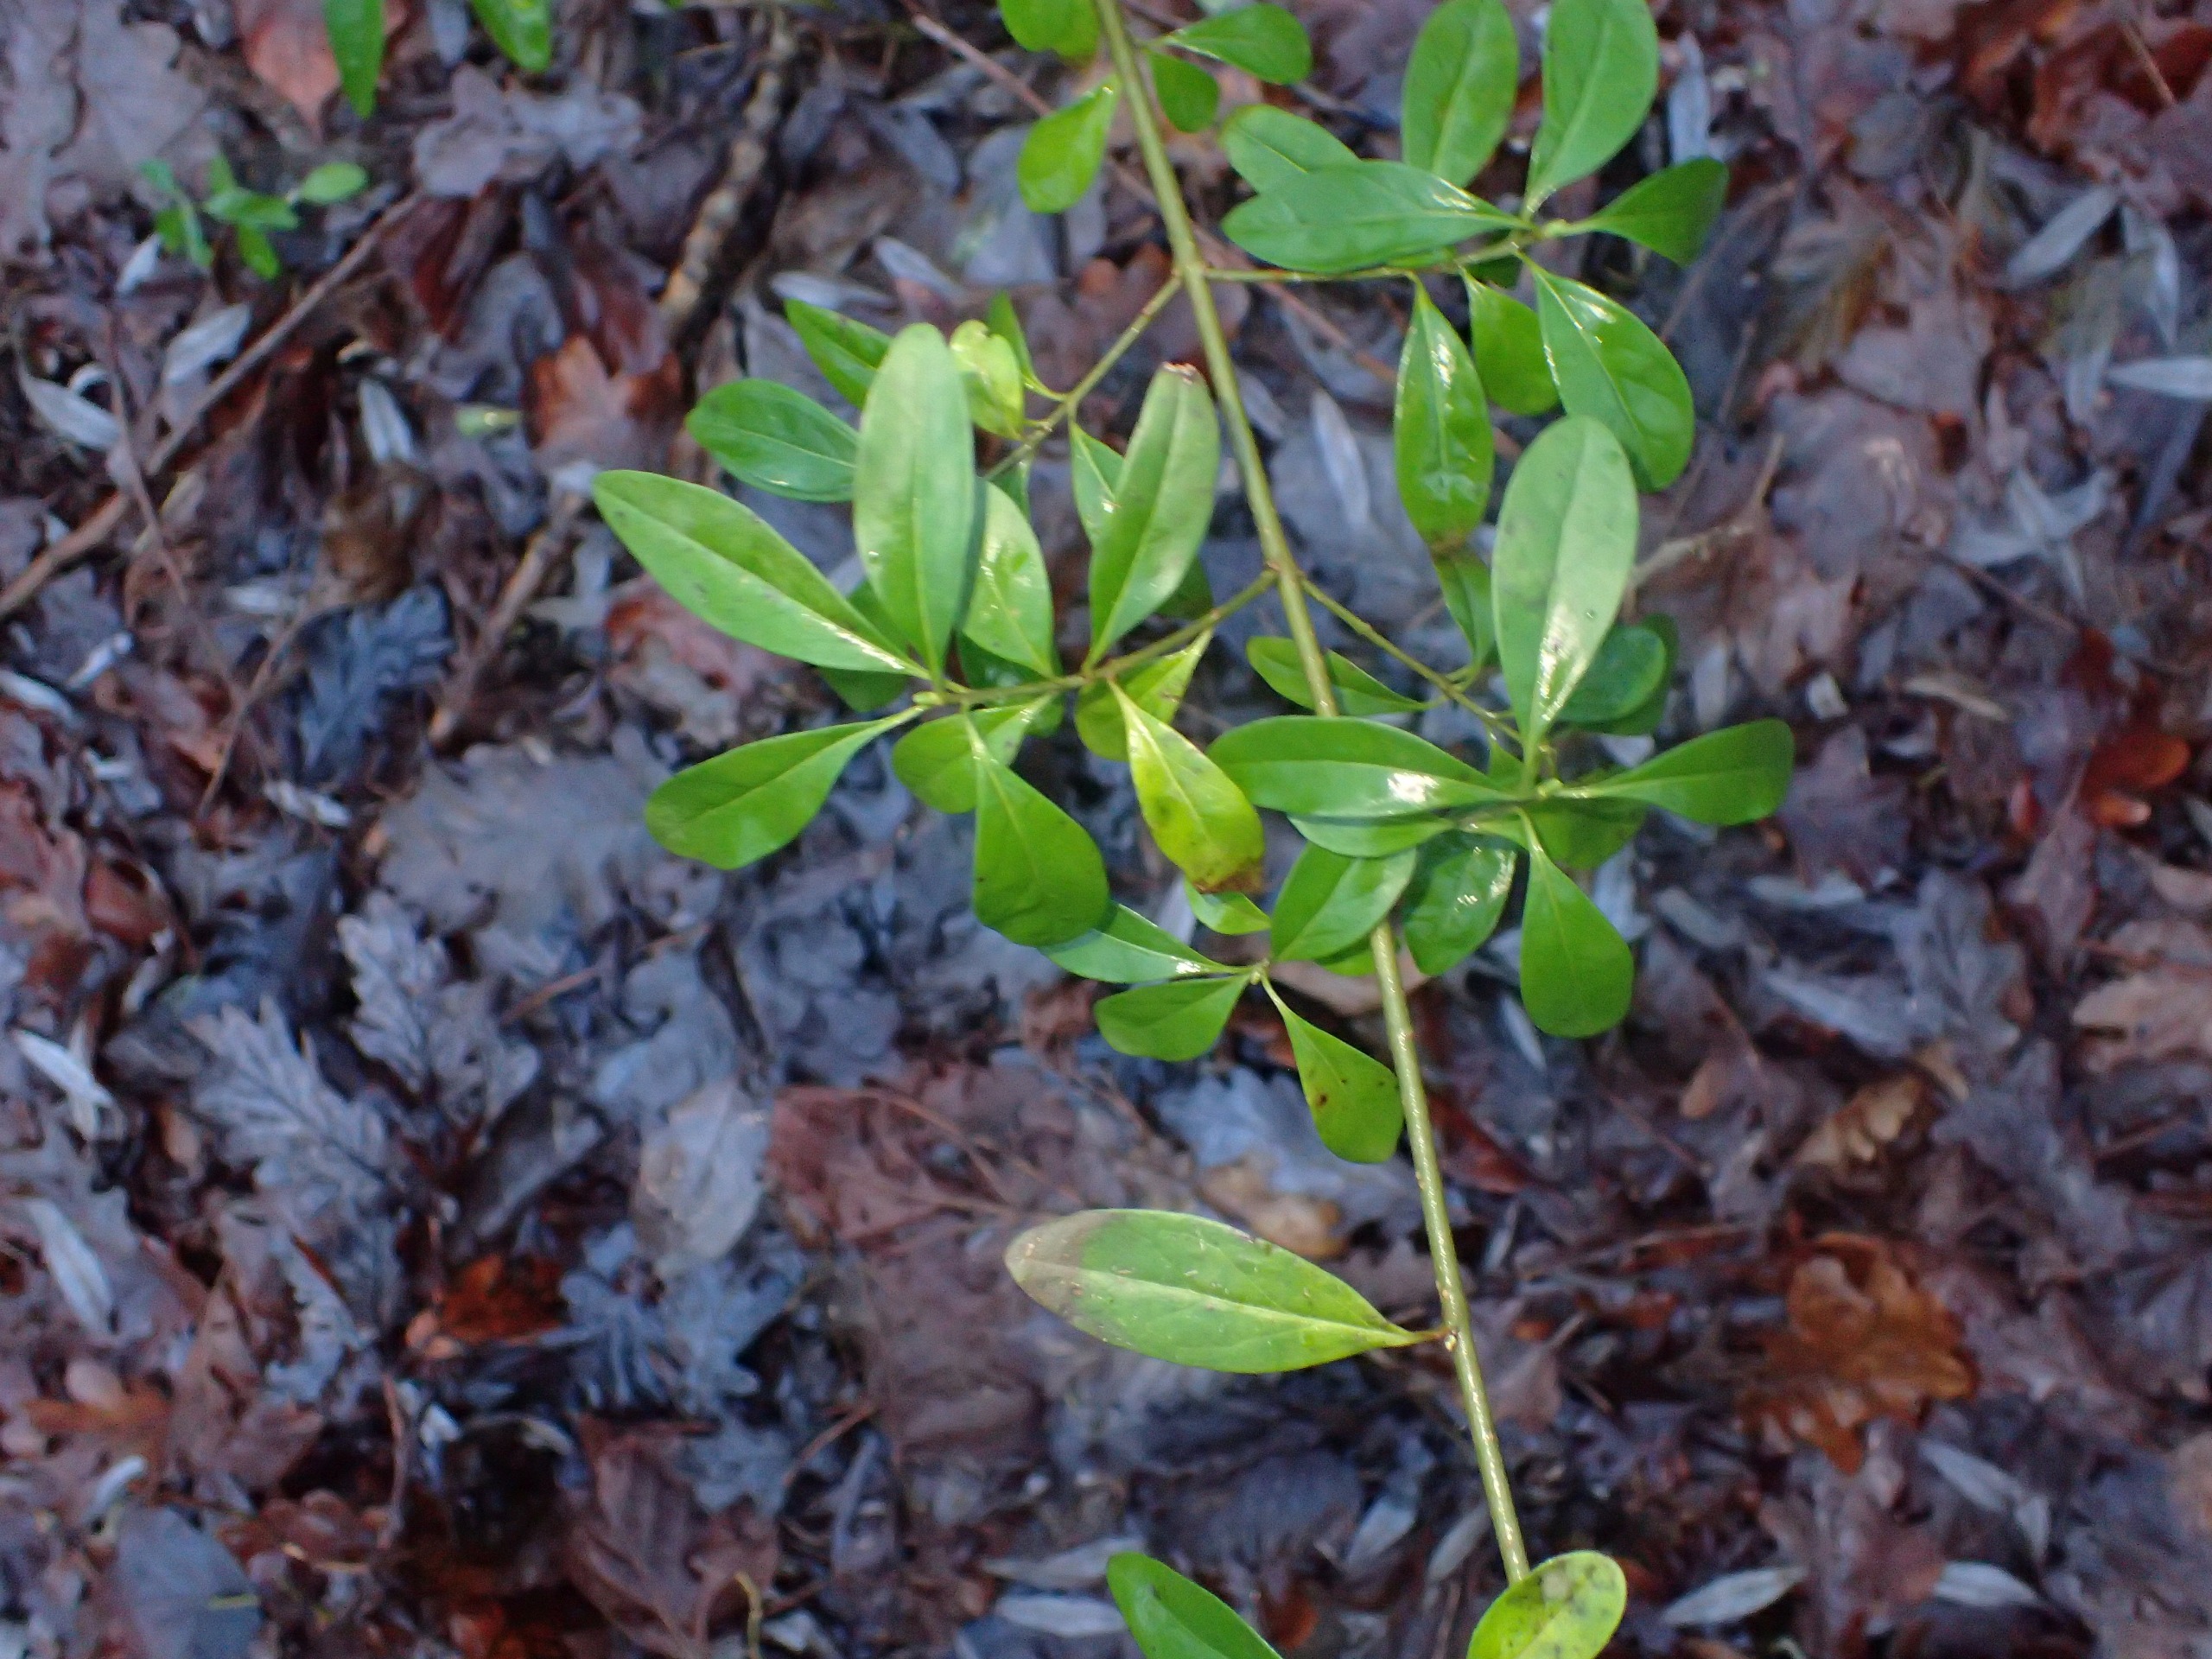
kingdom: Plantae
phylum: Tracheophyta
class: Magnoliopsida
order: Lamiales
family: Oleaceae
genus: Ligustrum
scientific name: Ligustrum vulgare
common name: Liguster
